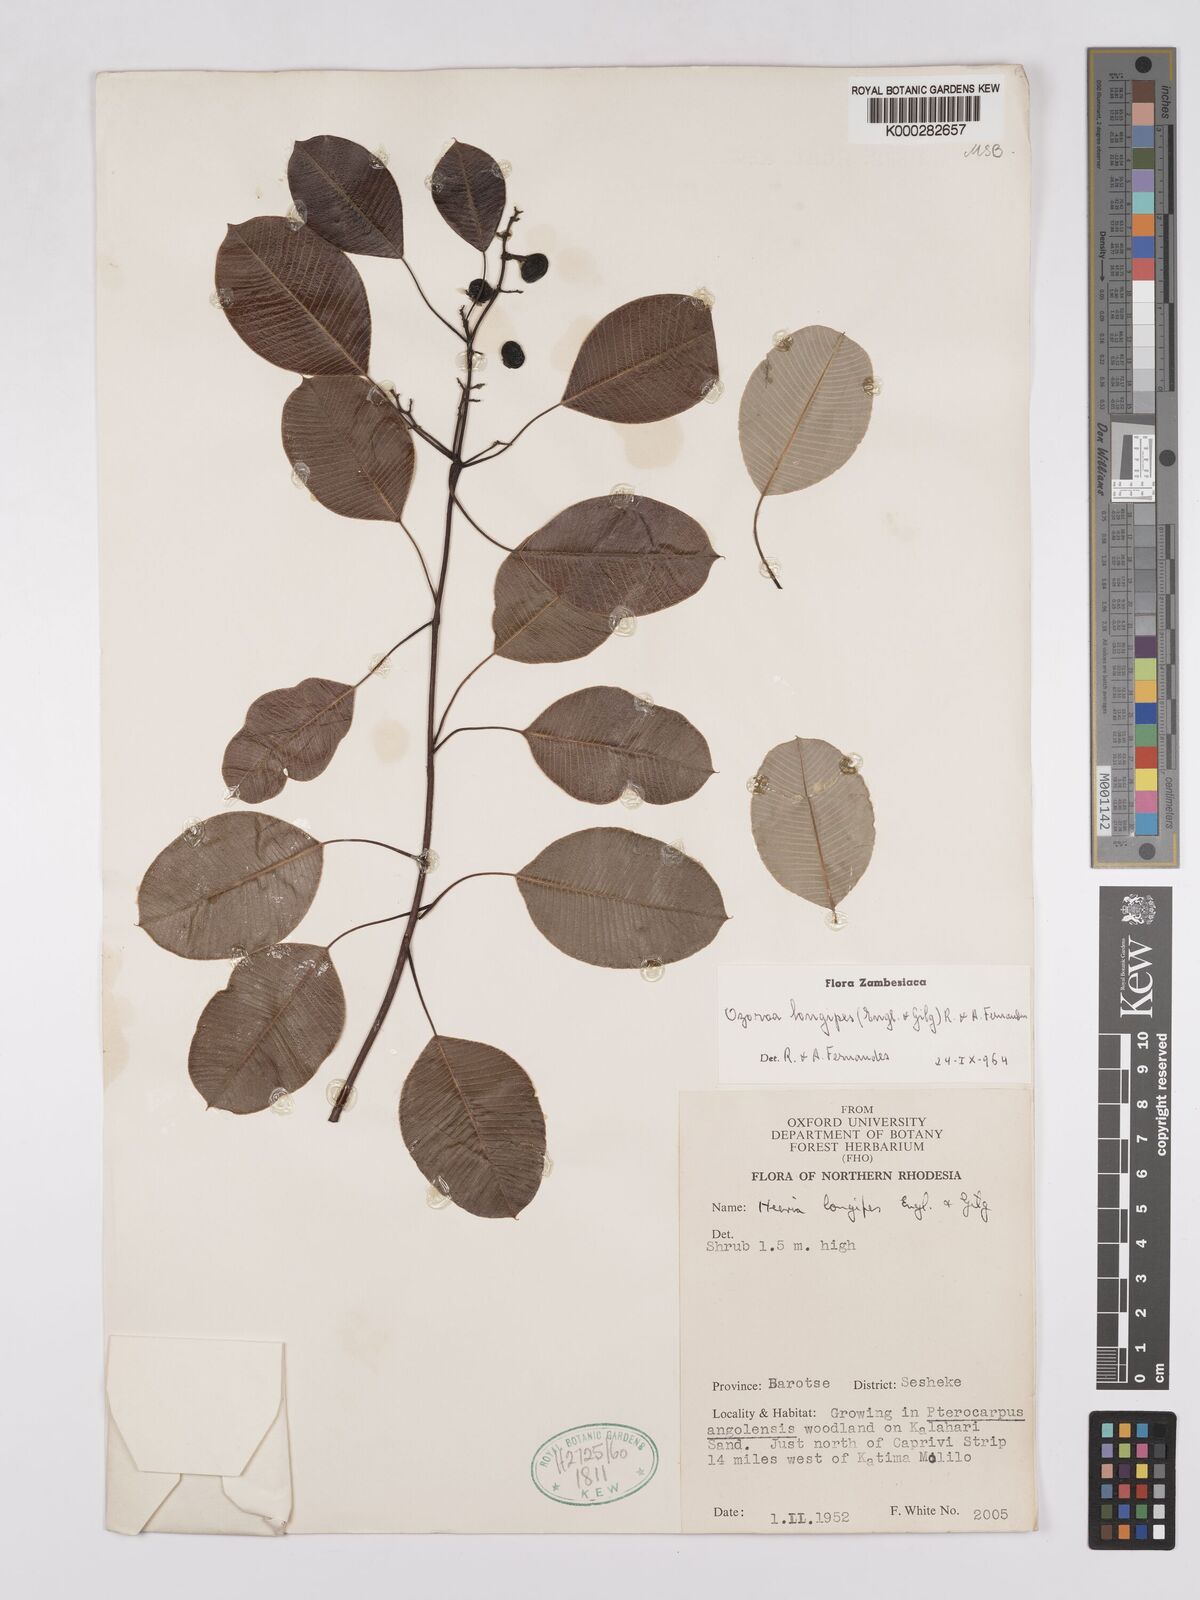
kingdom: Plantae
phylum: Tracheophyta
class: Magnoliopsida
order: Sapindales
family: Anacardiaceae
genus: Ozoroa
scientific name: Ozoroa longipes
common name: Round-leaved resin tree
